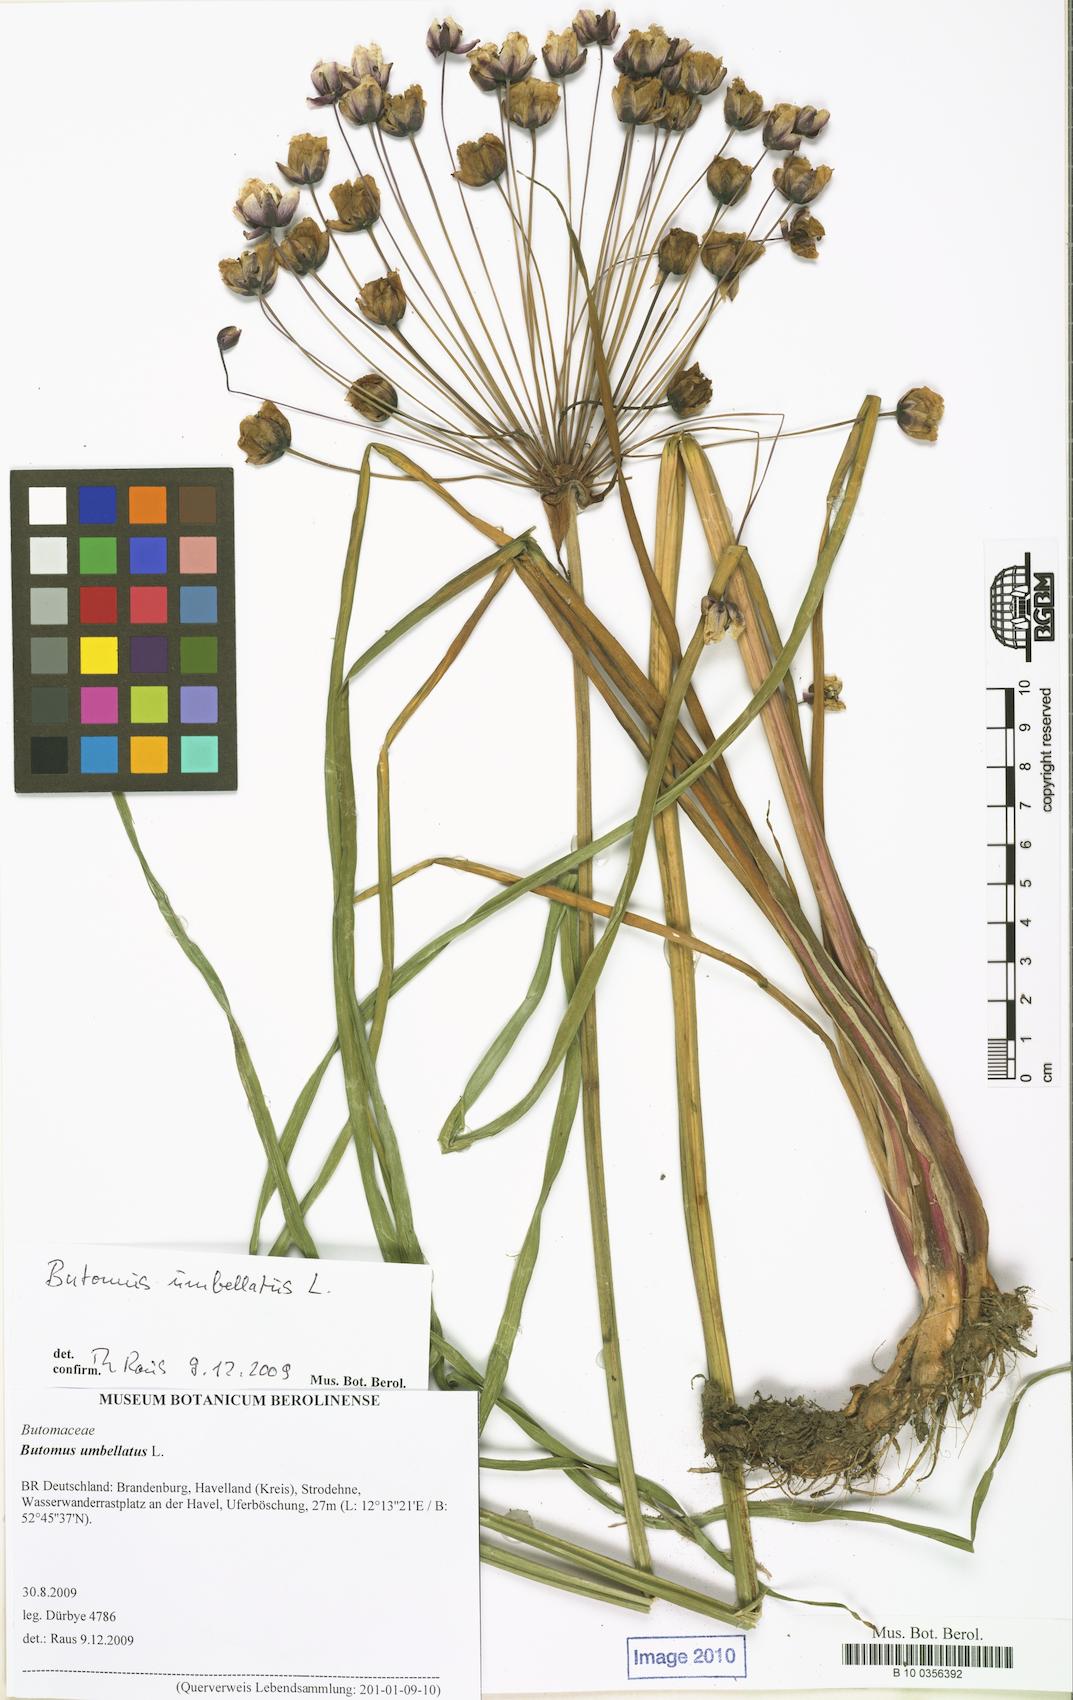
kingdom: Plantae
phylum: Tracheophyta
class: Liliopsida
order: Alismatales
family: Butomaceae
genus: Butomus
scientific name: Butomus umbellatus
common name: Flowering-rush
